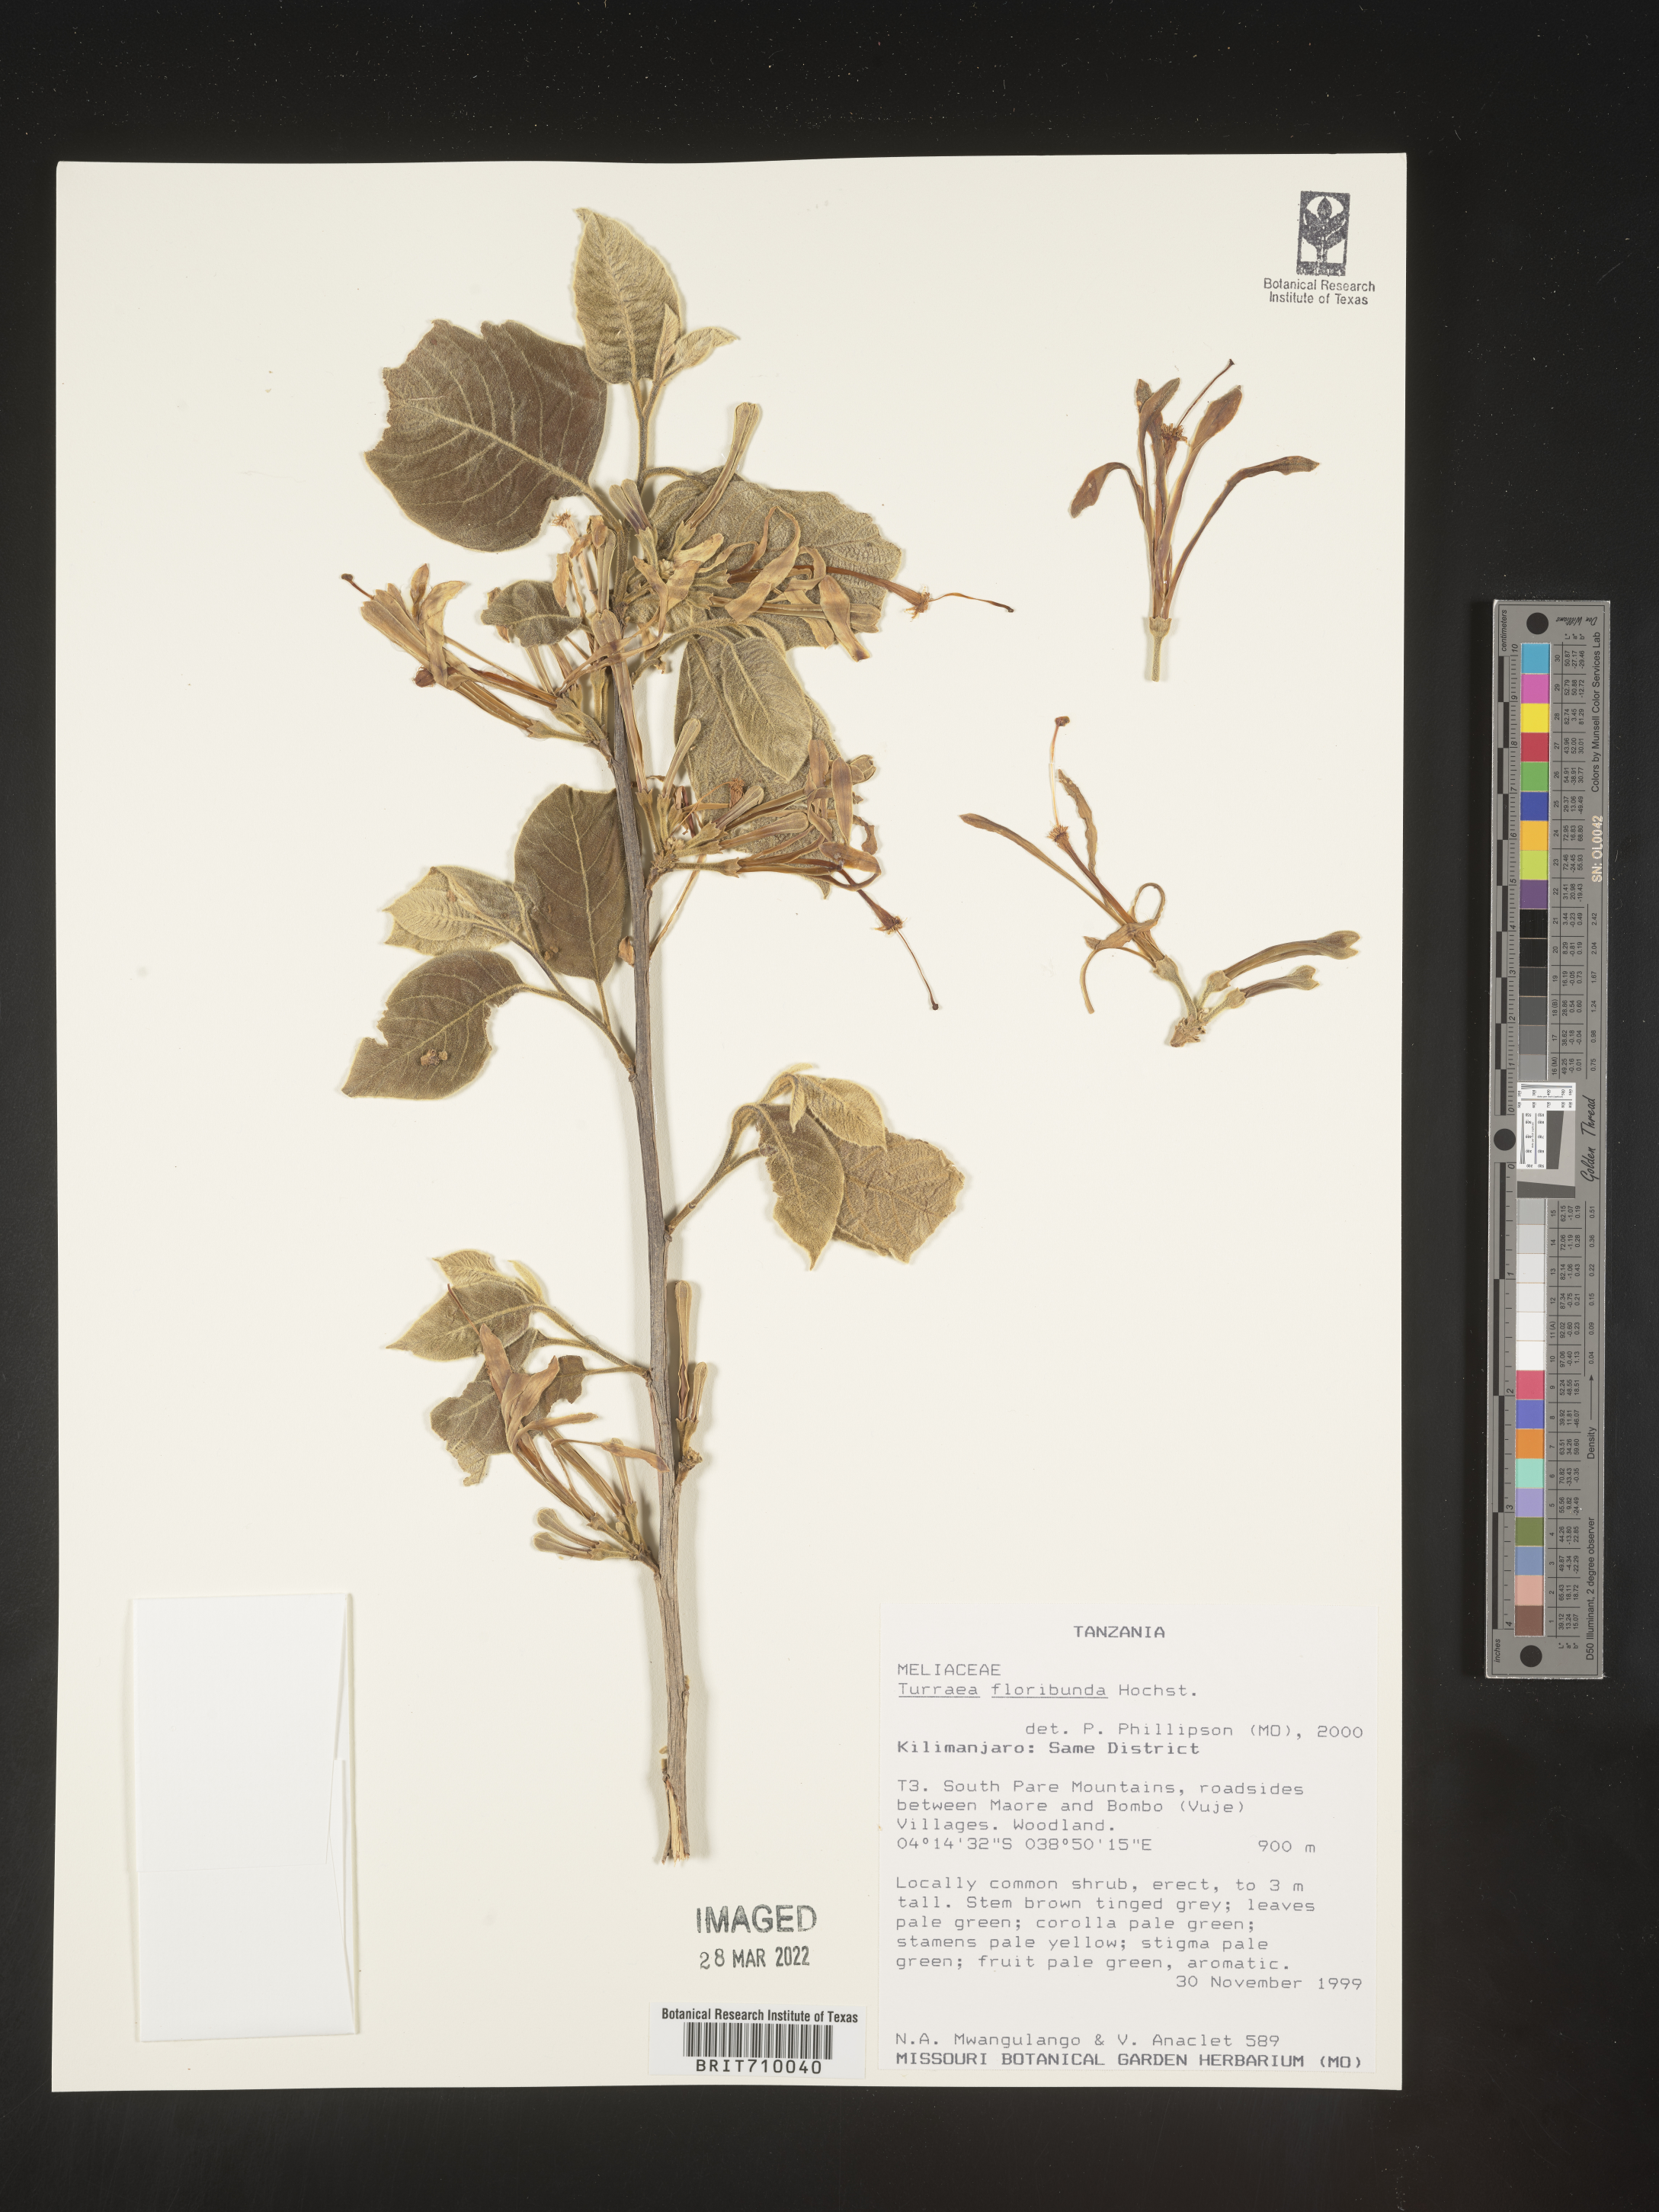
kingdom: Plantae
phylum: Tracheophyta
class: Magnoliopsida
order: Sapindales
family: Meliaceae
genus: Turraea
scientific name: Turraea
